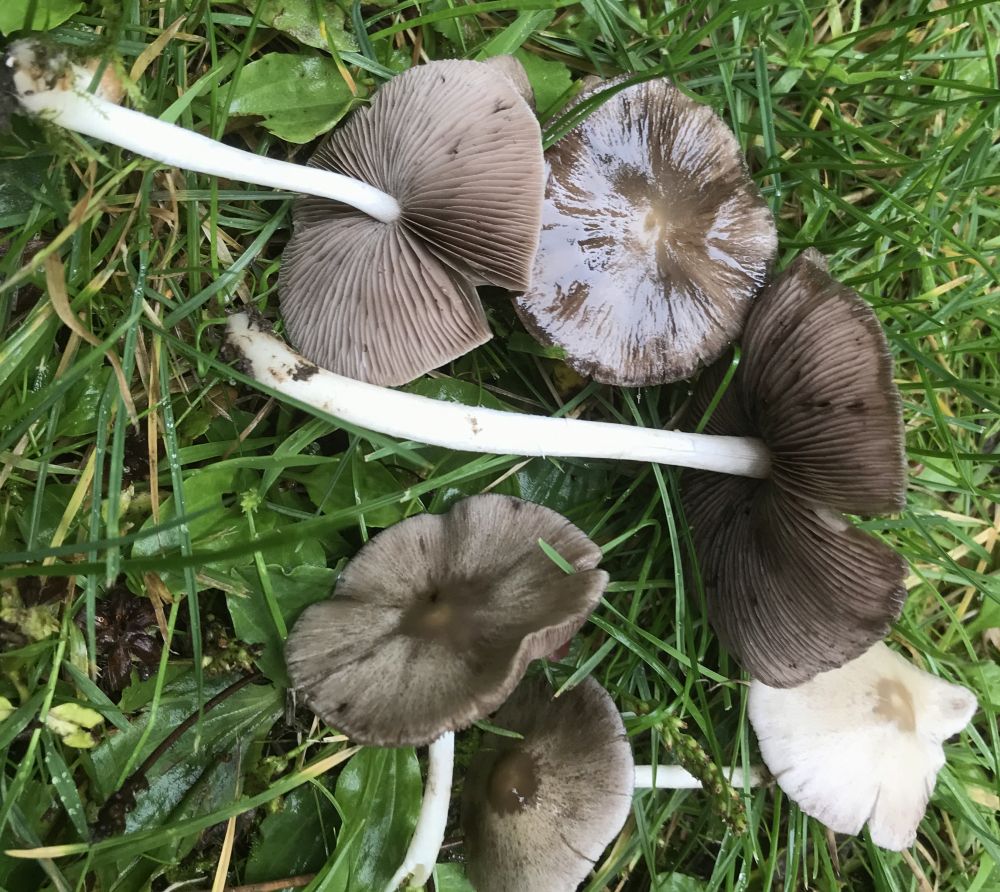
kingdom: Fungi
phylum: Basidiomycota
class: Agaricomycetes
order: Agaricales
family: Psathyrellaceae
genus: Candolleomyces
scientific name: Candolleomyces candolleanus
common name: Candolles mørkhat
